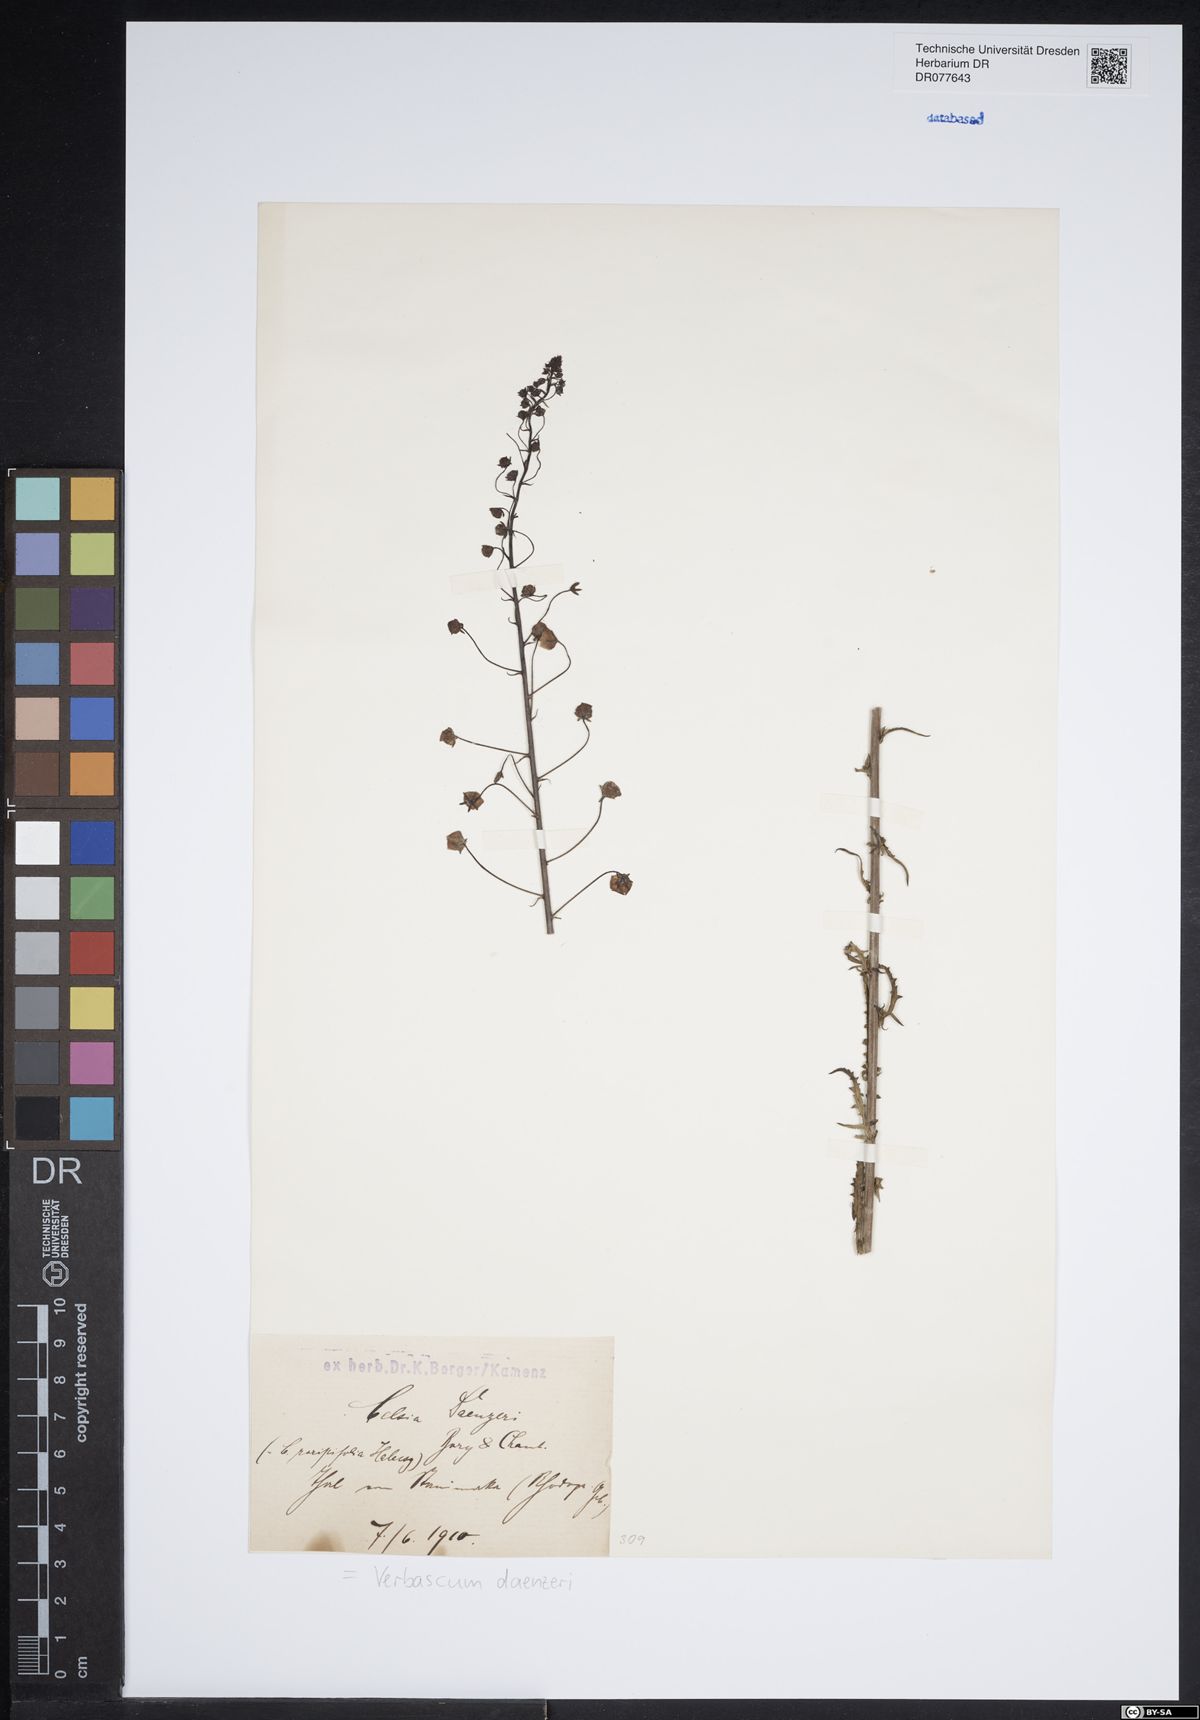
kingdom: Plantae
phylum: Tracheophyta
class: Magnoliopsida
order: Lamiales
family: Scrophulariaceae
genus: Verbascum
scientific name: Verbascum daenzeri
